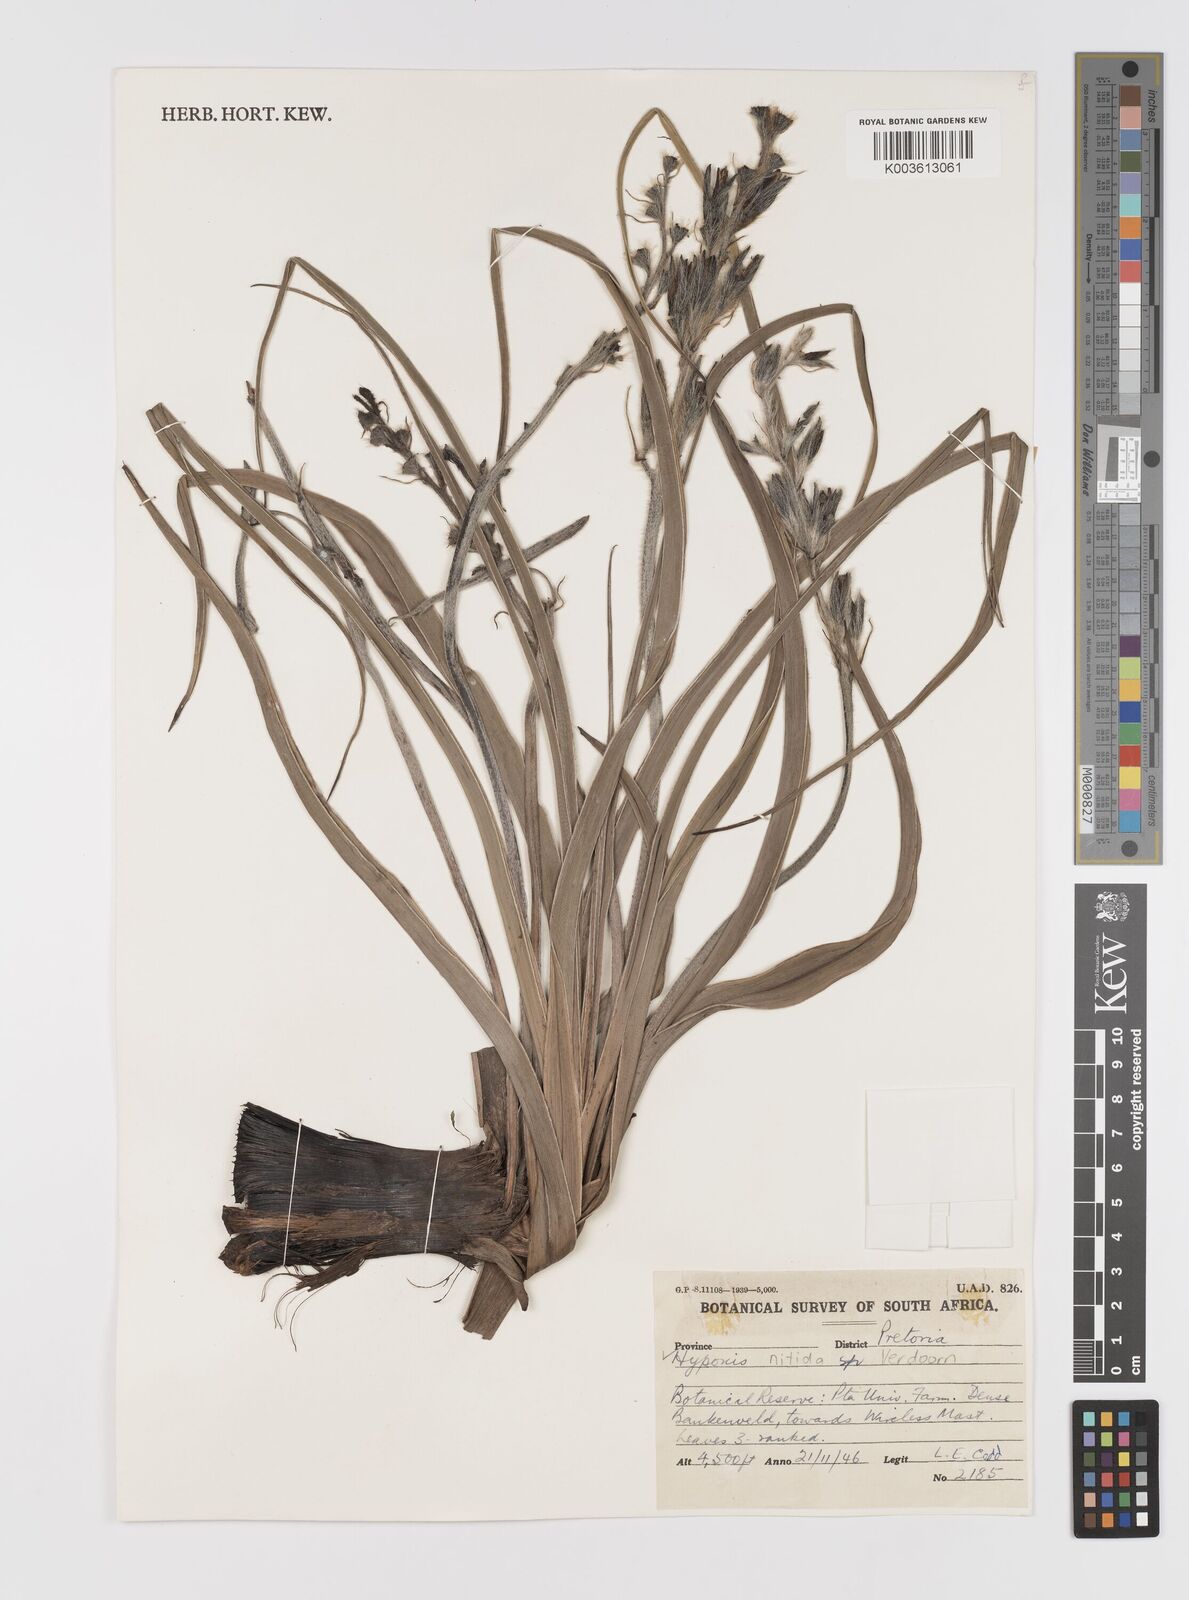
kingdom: Plantae
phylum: Tracheophyta
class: Liliopsida
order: Asparagales
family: Hypoxidaceae
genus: Hypoxis
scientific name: Hypoxis obtusa
